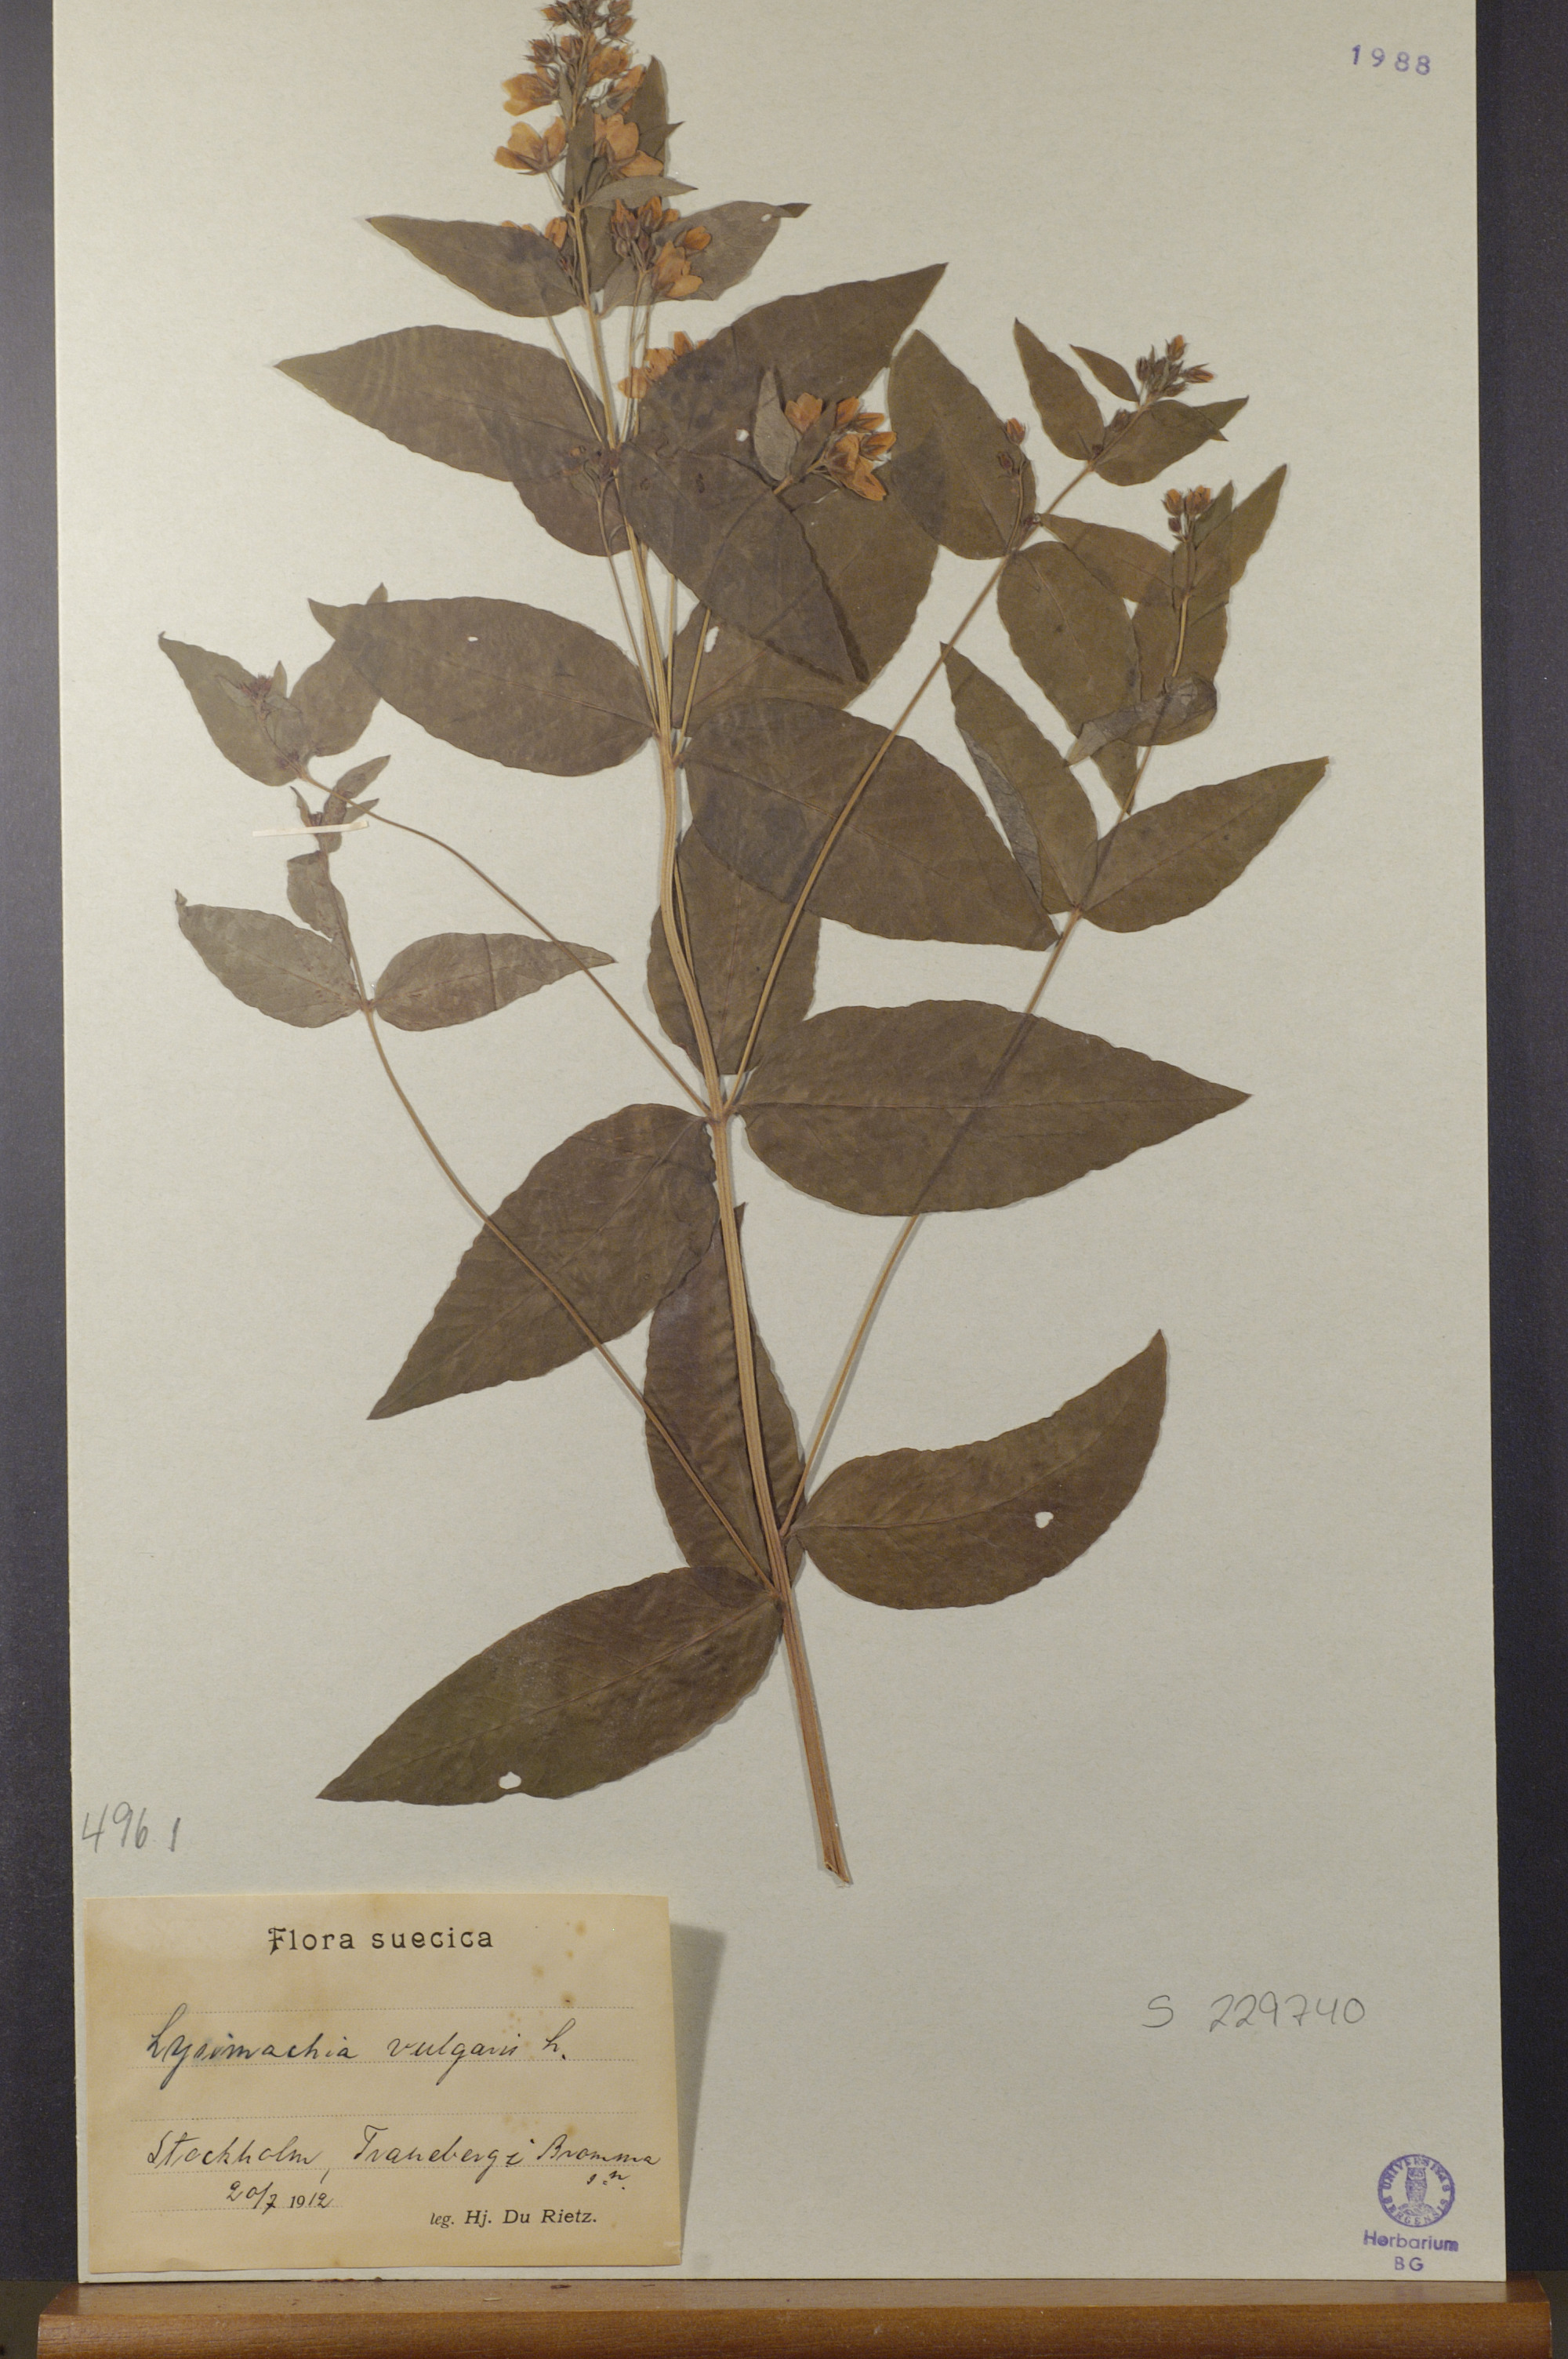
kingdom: Plantae
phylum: Tracheophyta
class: Magnoliopsida
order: Ericales
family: Primulaceae
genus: Lysimachia
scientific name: Lysimachia vulgaris
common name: Yellow loosestrife
